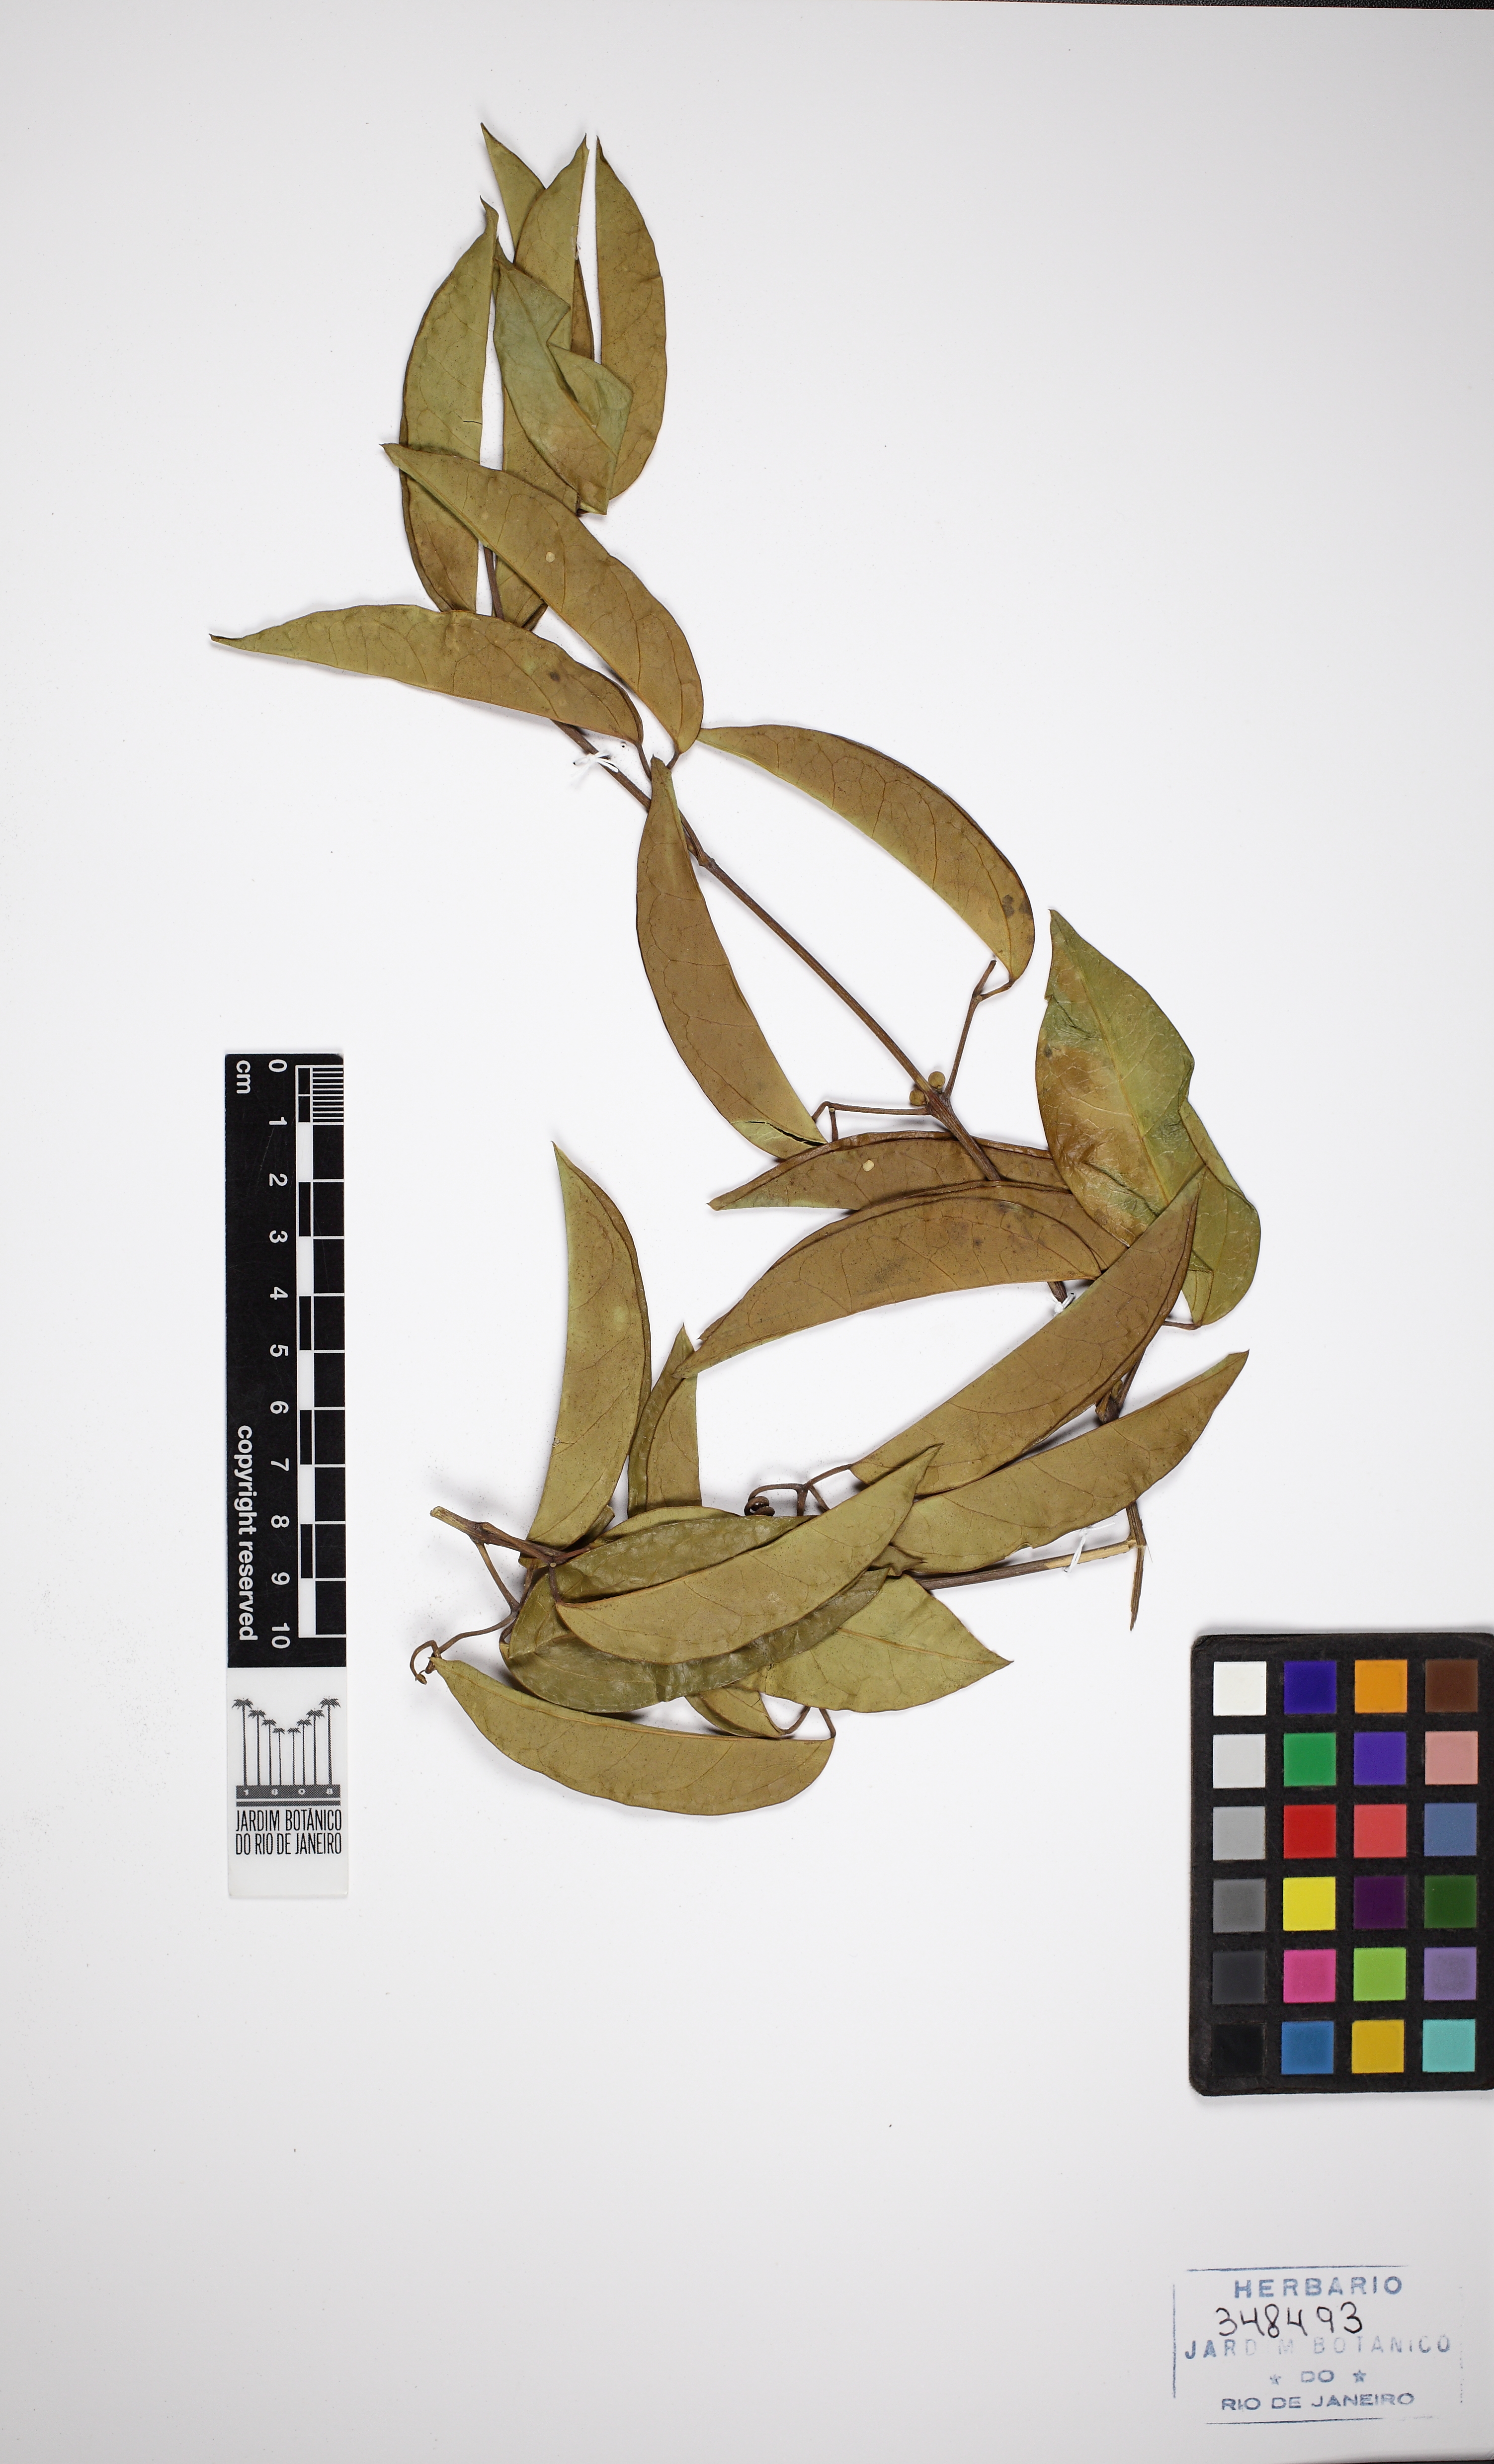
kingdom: Plantae
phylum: Tracheophyta
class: Magnoliopsida
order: Lamiales
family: Bignoniaceae
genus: Anemopaegma
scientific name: Anemopaegma
